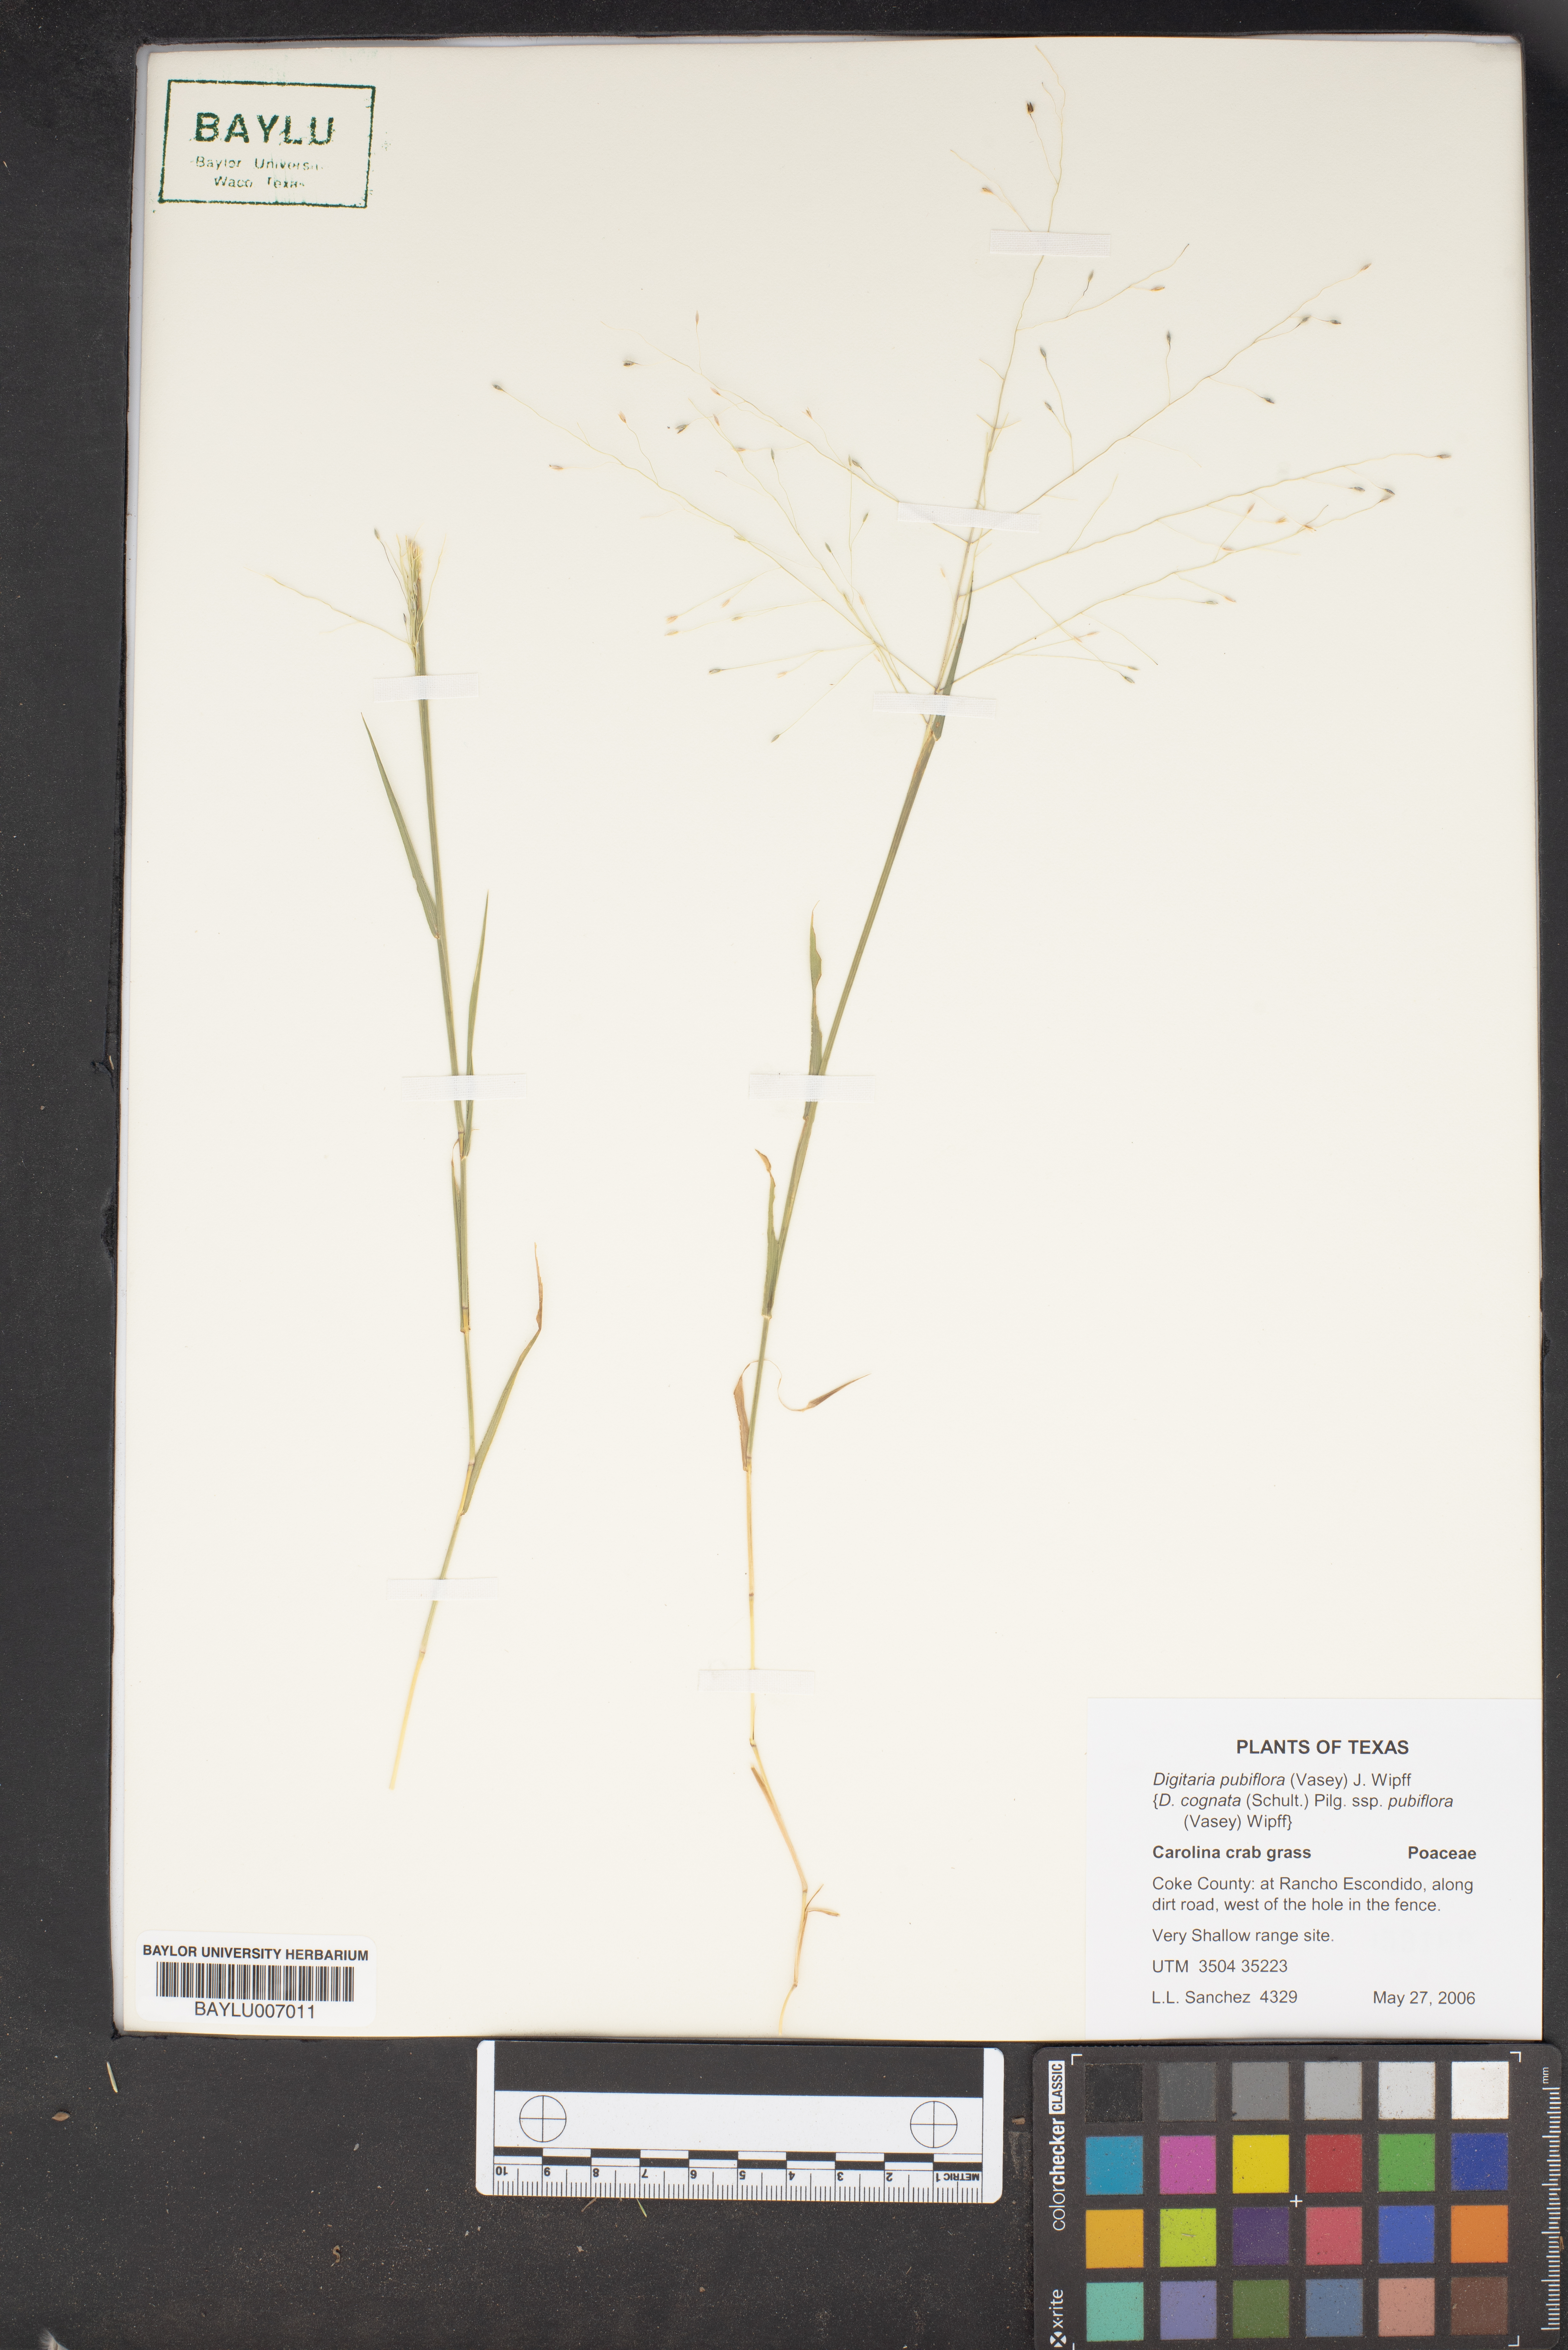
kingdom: Plantae
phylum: Tracheophyta
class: Liliopsida
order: Poales
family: Poaceae
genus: Digitaria
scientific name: Digitaria pubiflora
